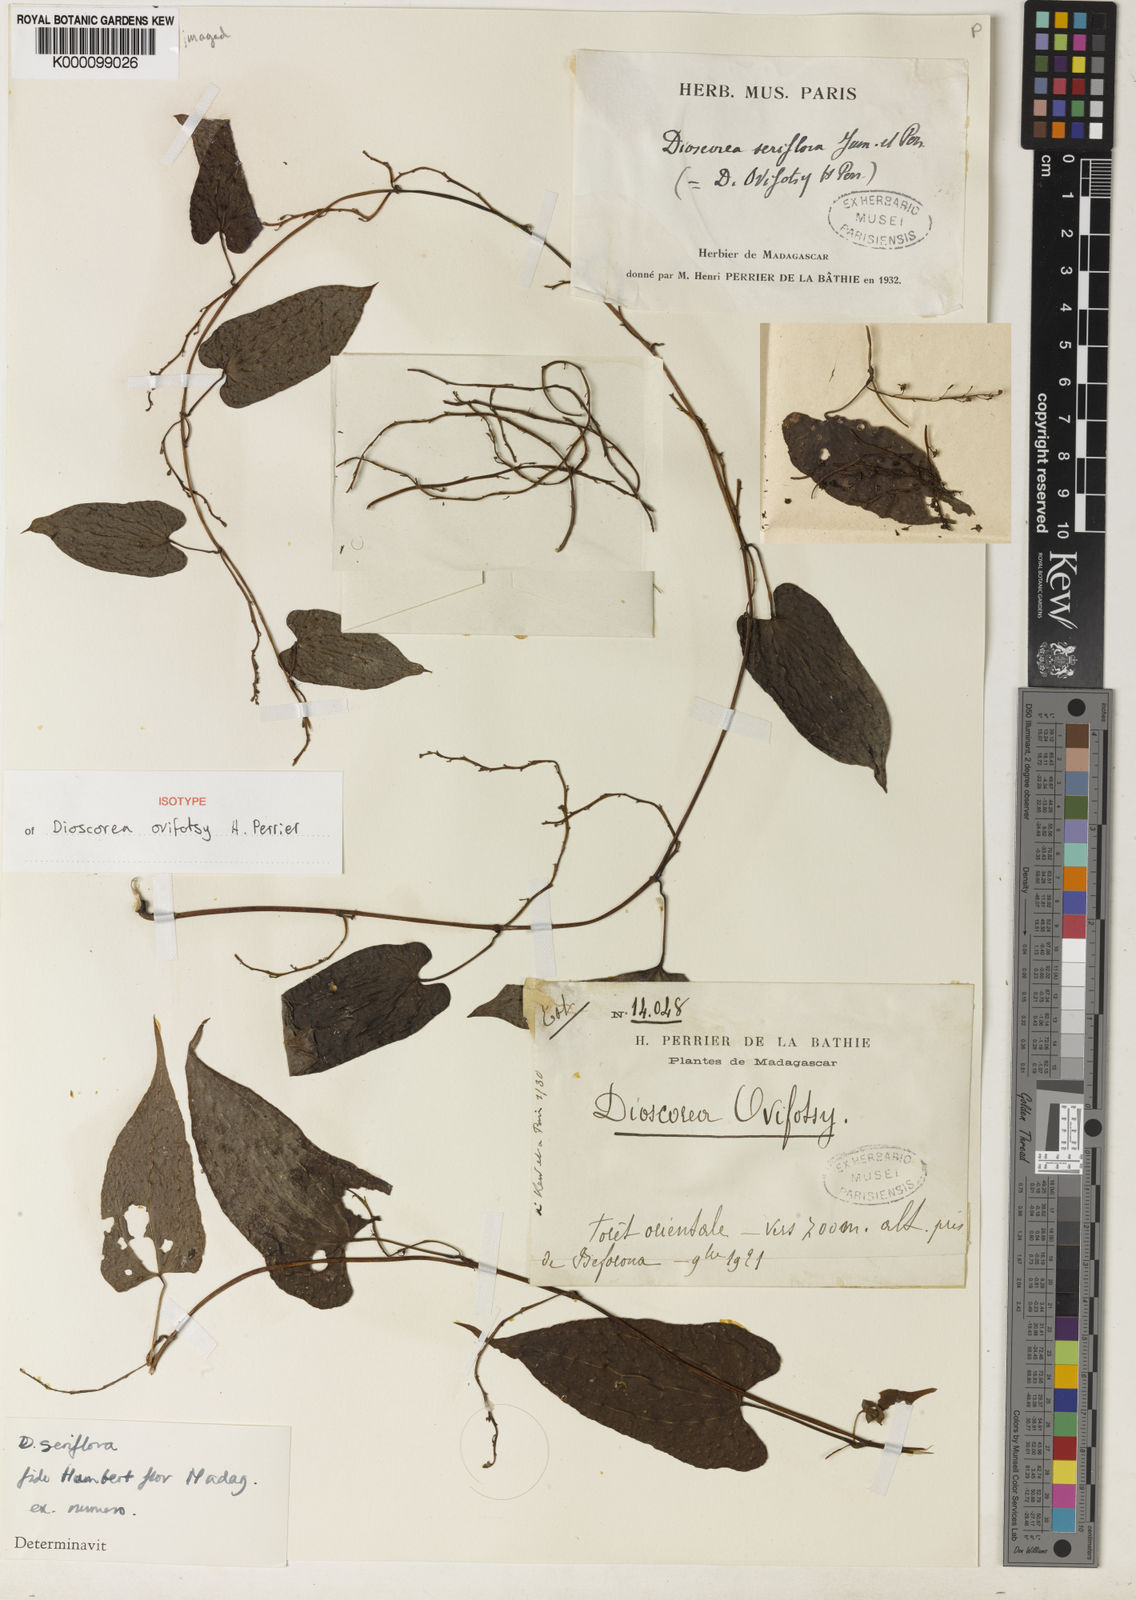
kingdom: Plantae
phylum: Tracheophyta
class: Liliopsida
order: Dioscoreales
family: Dioscoreaceae
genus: Dioscorea
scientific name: Dioscorea seriflora
